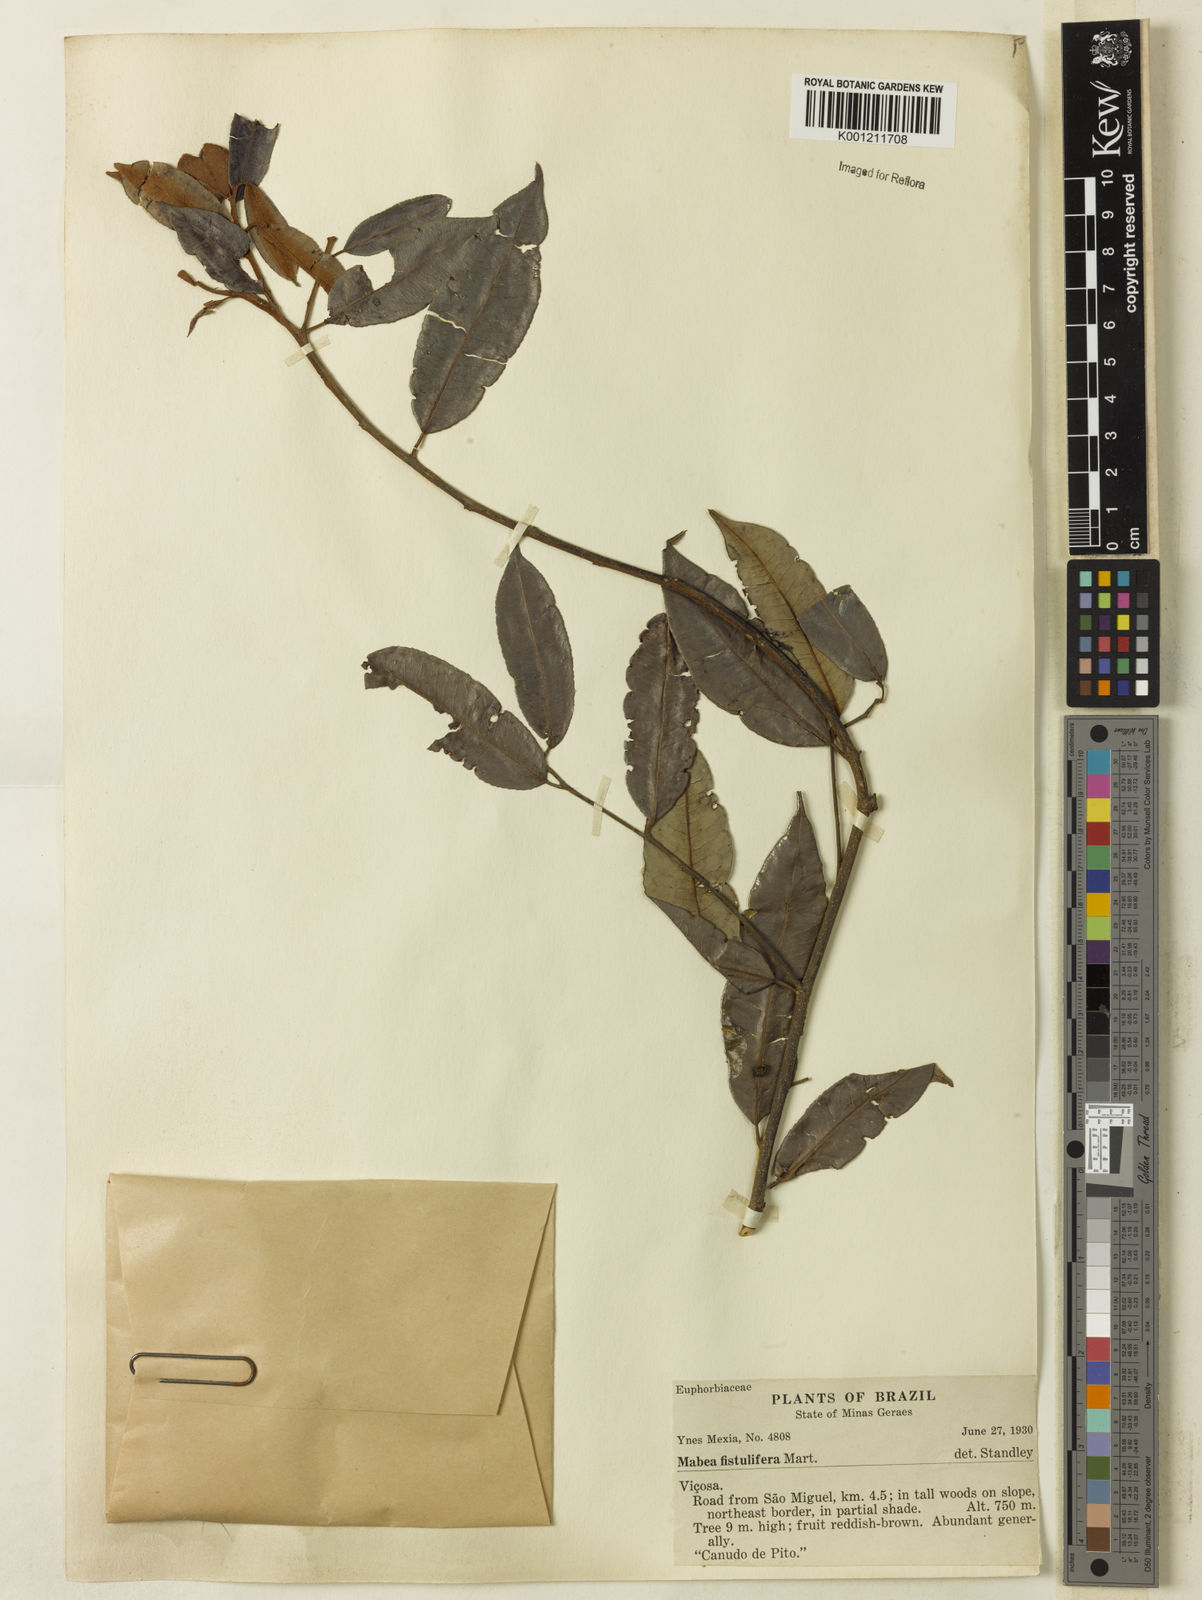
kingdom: Plantae
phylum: Tracheophyta
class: Magnoliopsida
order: Malpighiales
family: Euphorbiaceae
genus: Mabea
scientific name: Mabea fistulifera
